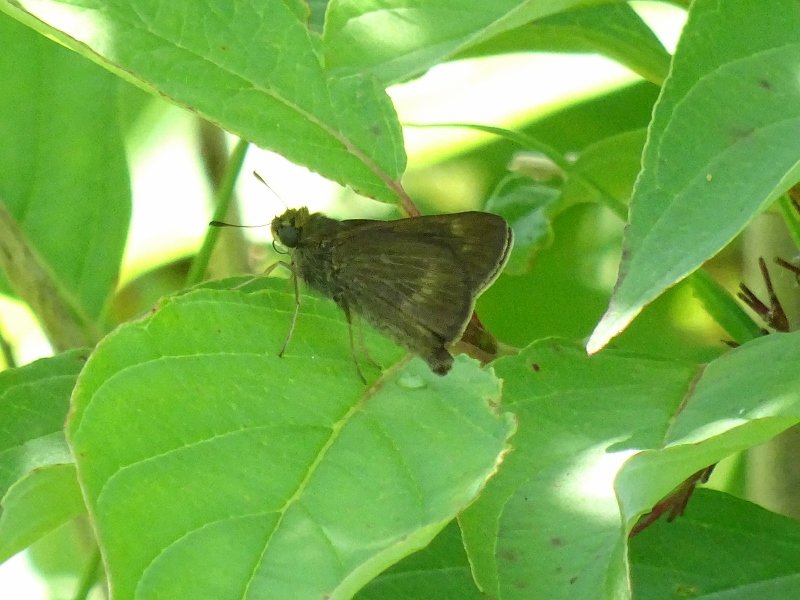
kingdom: Animalia
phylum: Arthropoda
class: Insecta
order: Lepidoptera
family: Hesperiidae
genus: Polites
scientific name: Polites
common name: Crossline Skipper
